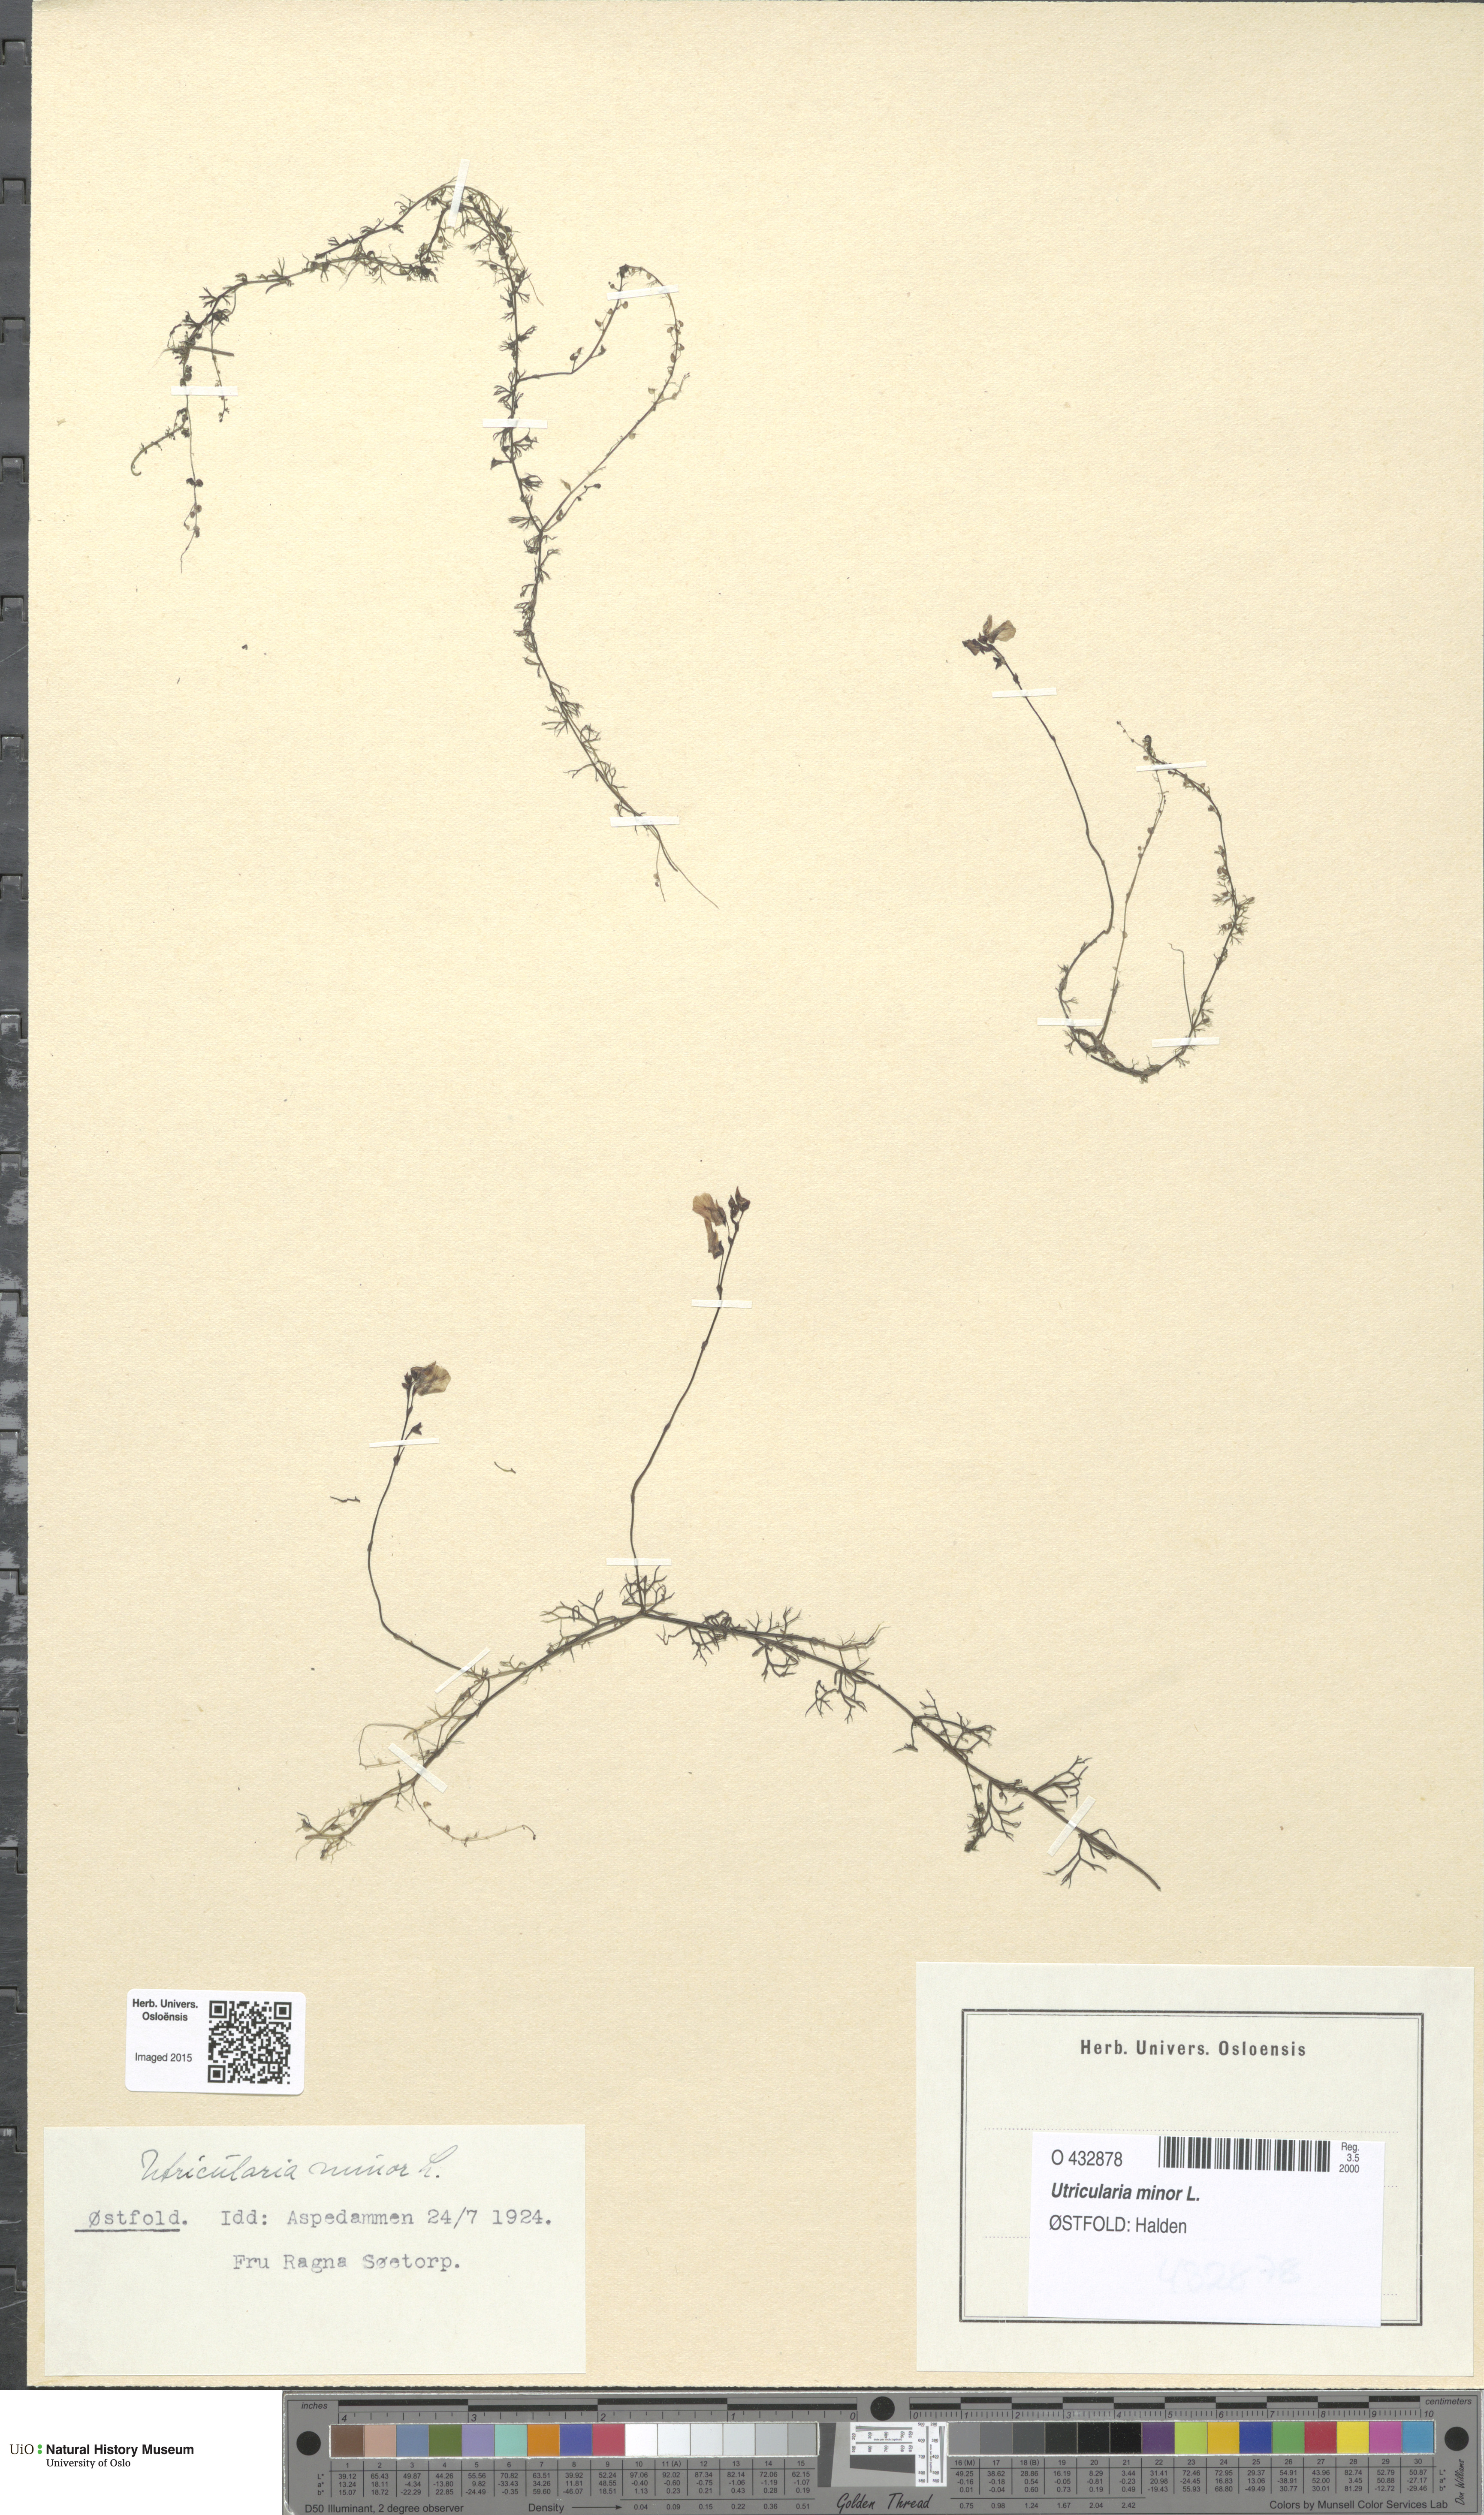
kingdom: Plantae
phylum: Tracheophyta
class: Magnoliopsida
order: Lamiales
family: Lentibulariaceae
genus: Utricularia
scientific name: Utricularia minor
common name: Lesser bladderwort
